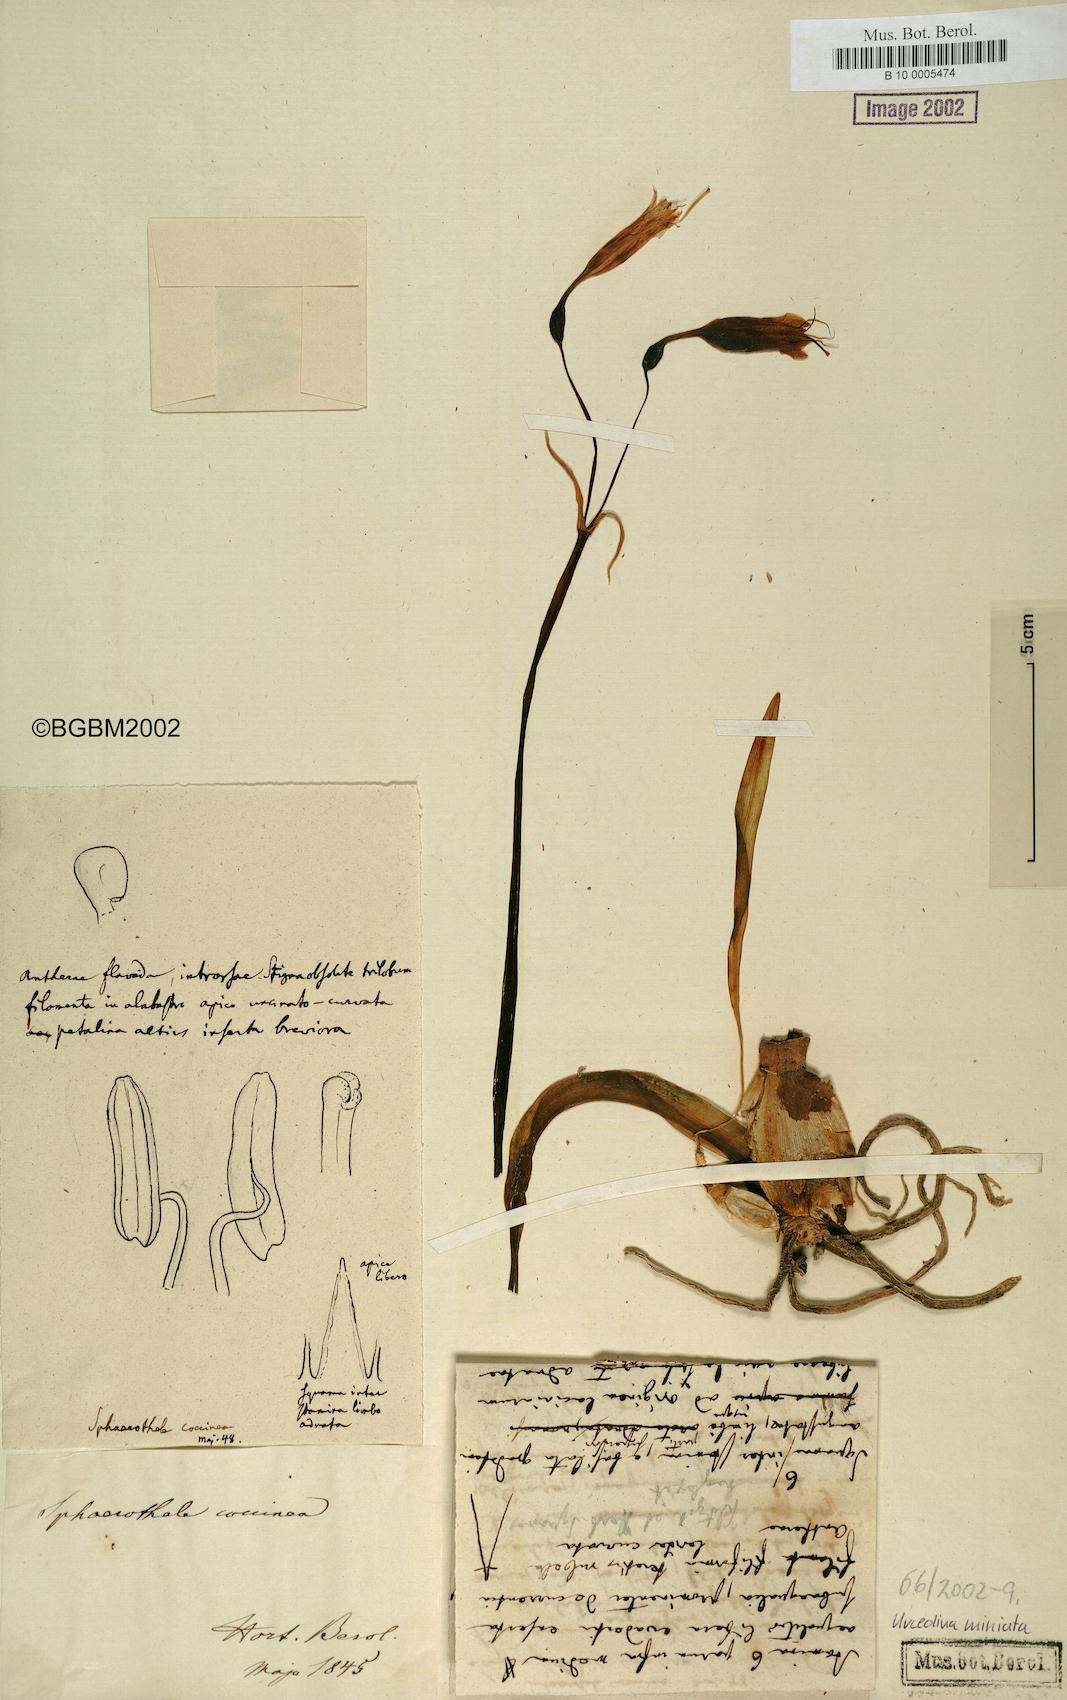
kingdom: Plantae
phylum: Tracheophyta
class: Liliopsida
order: Asparagales
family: Amaryllidaceae
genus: Stenomesson
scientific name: Stenomesson miniatum
